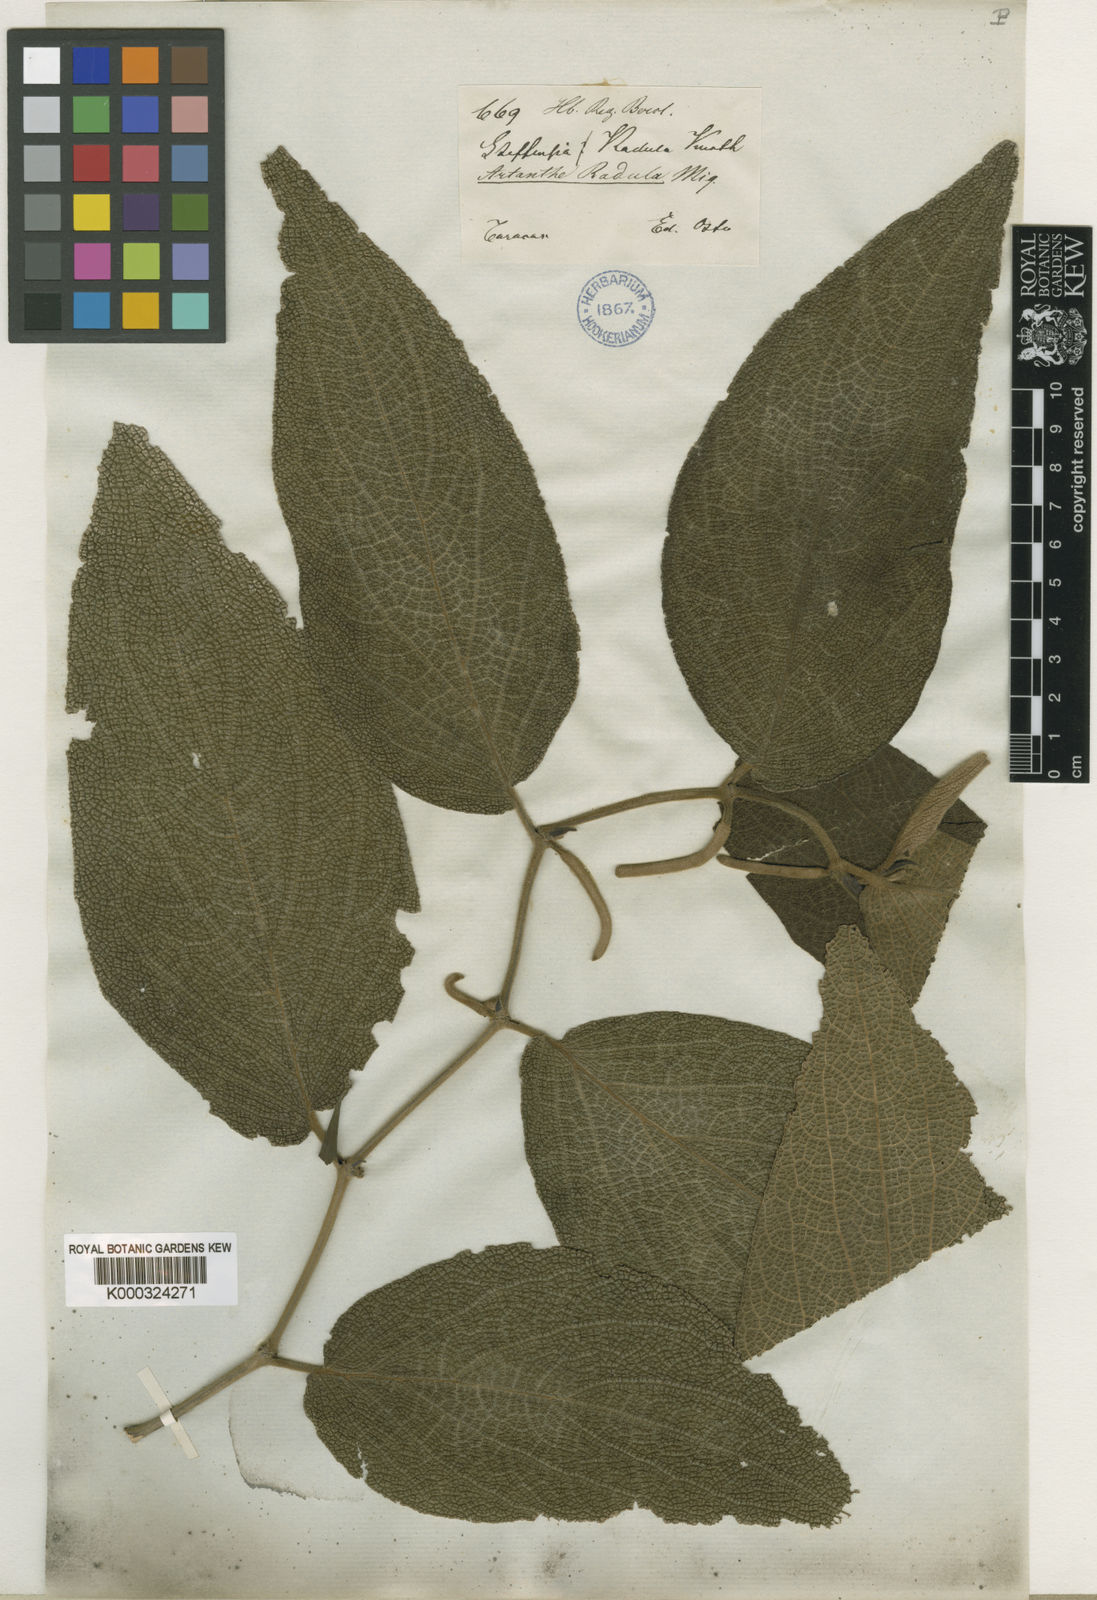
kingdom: Plantae
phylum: Tracheophyta
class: Magnoliopsida
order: Piperales
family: Piperaceae
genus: Piper
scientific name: Piper bredemeyeri
